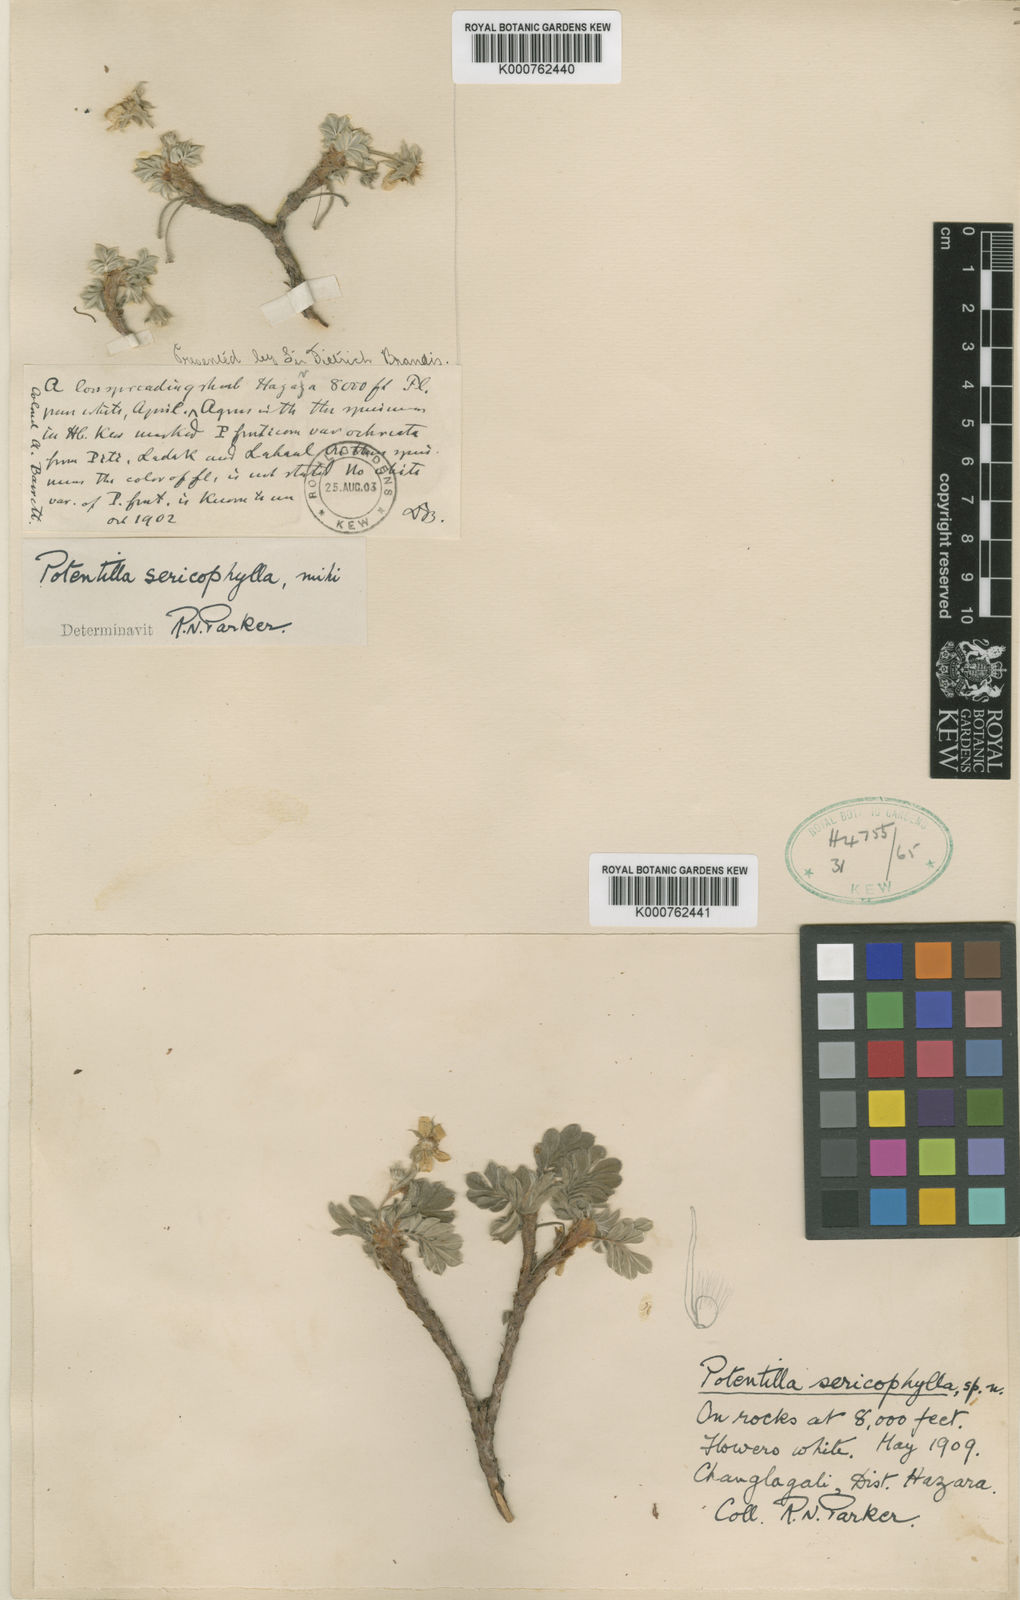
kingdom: Plantae
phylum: Tracheophyta
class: Magnoliopsida
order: Rosales
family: Rosaceae
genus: Argentina
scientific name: Argentina sericophylla
